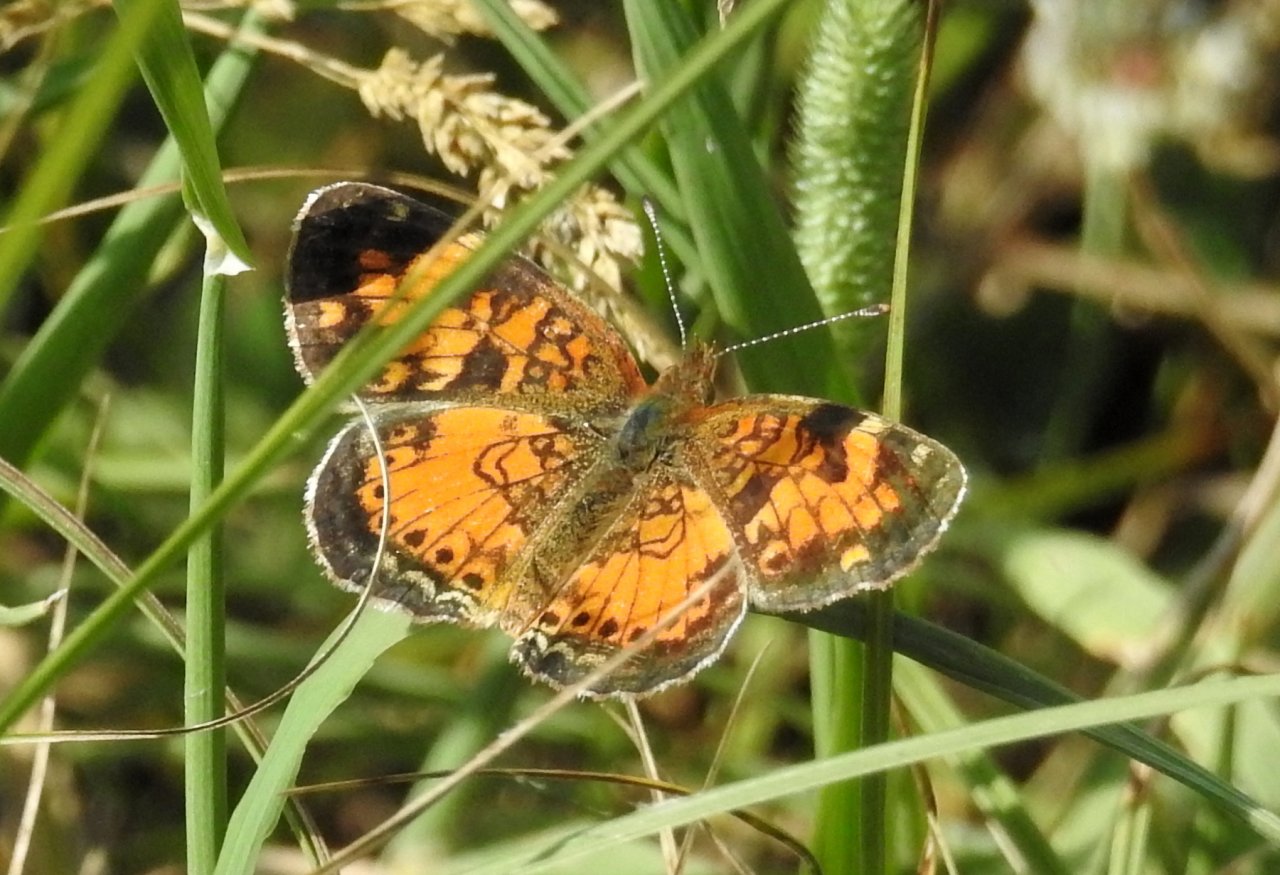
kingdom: Animalia
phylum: Arthropoda
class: Insecta
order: Lepidoptera
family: Nymphalidae
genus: Phyciodes
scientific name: Phyciodes tharos
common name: Northern Crescent
